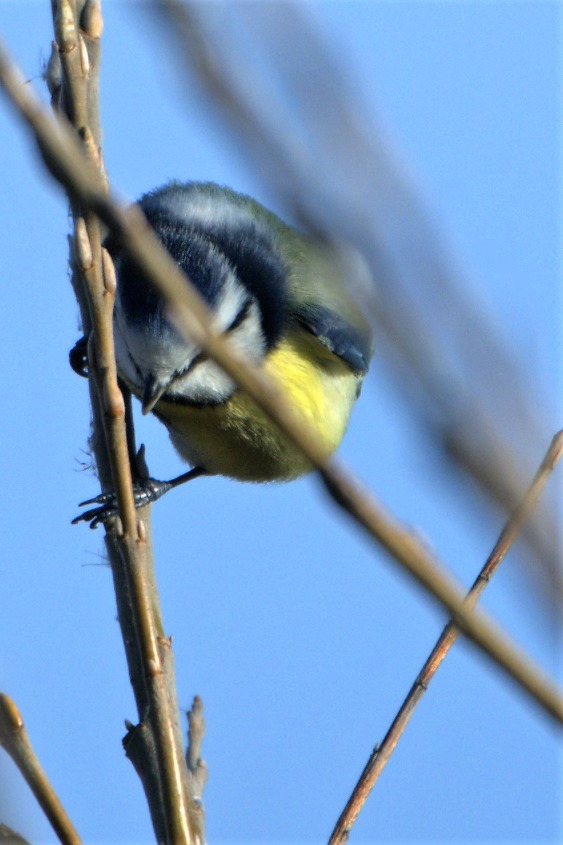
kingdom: Animalia
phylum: Chordata
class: Aves
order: Passeriformes
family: Paridae
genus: Cyanistes
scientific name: Cyanistes caeruleus
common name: Blåmejse
